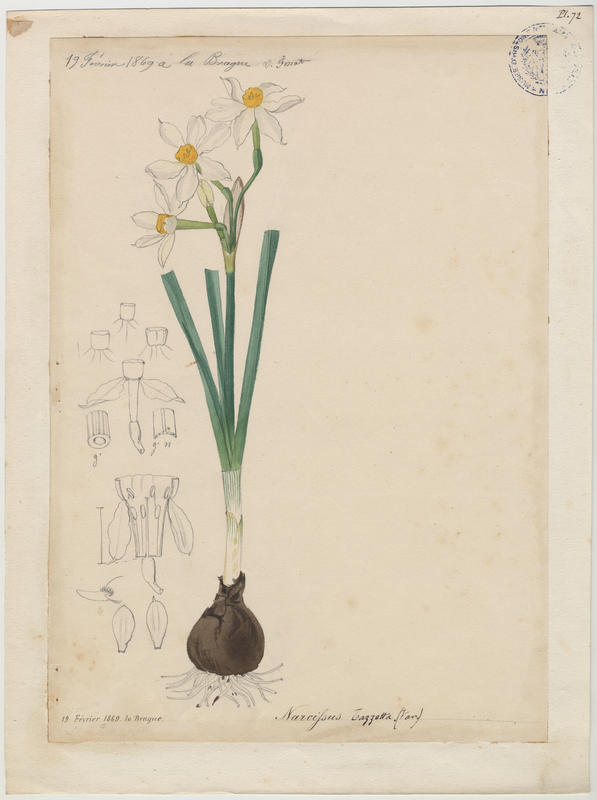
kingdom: Plantae
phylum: Tracheophyta
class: Liliopsida
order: Asparagales
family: Amaryllidaceae
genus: Narcissus
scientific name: Narcissus tazetta
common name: Bunch-flowered daffodil
